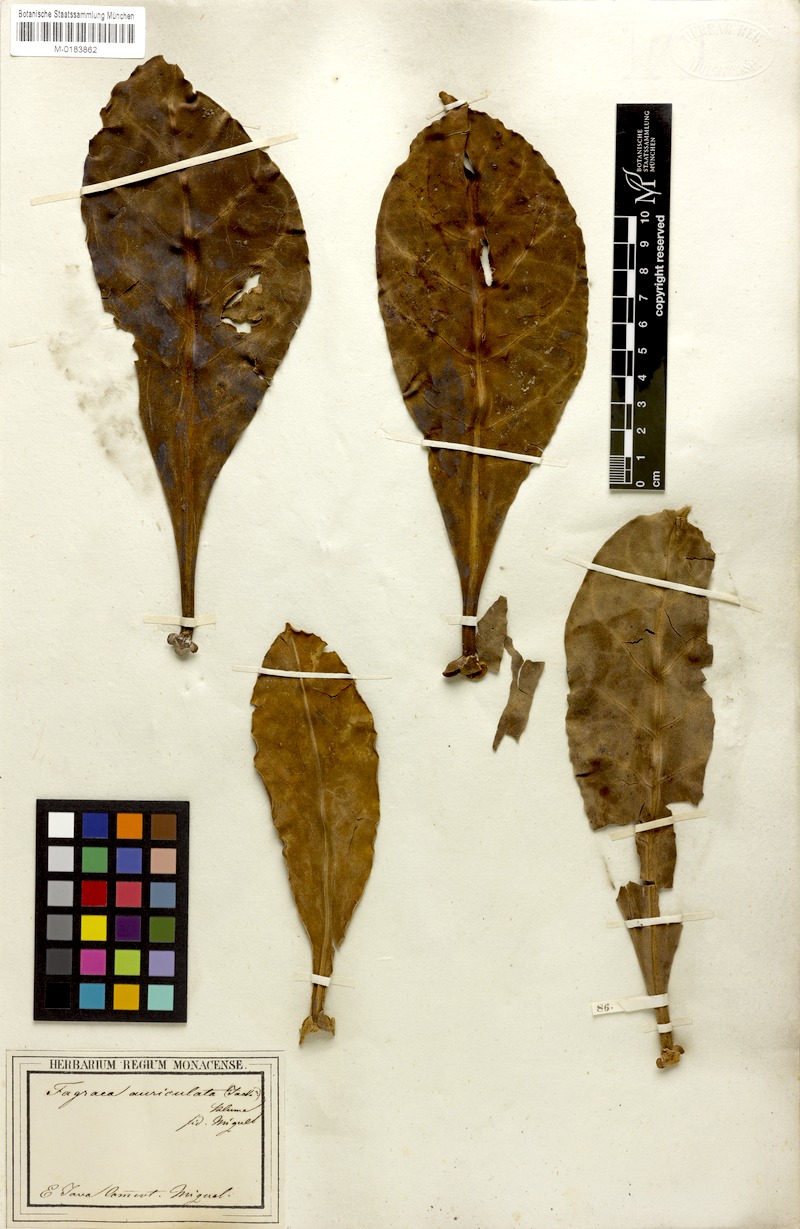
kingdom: Plantae
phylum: Tracheophyta
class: Magnoliopsida
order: Gentianales
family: Gentianaceae
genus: Fagraea
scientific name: Fagraea auriculata
